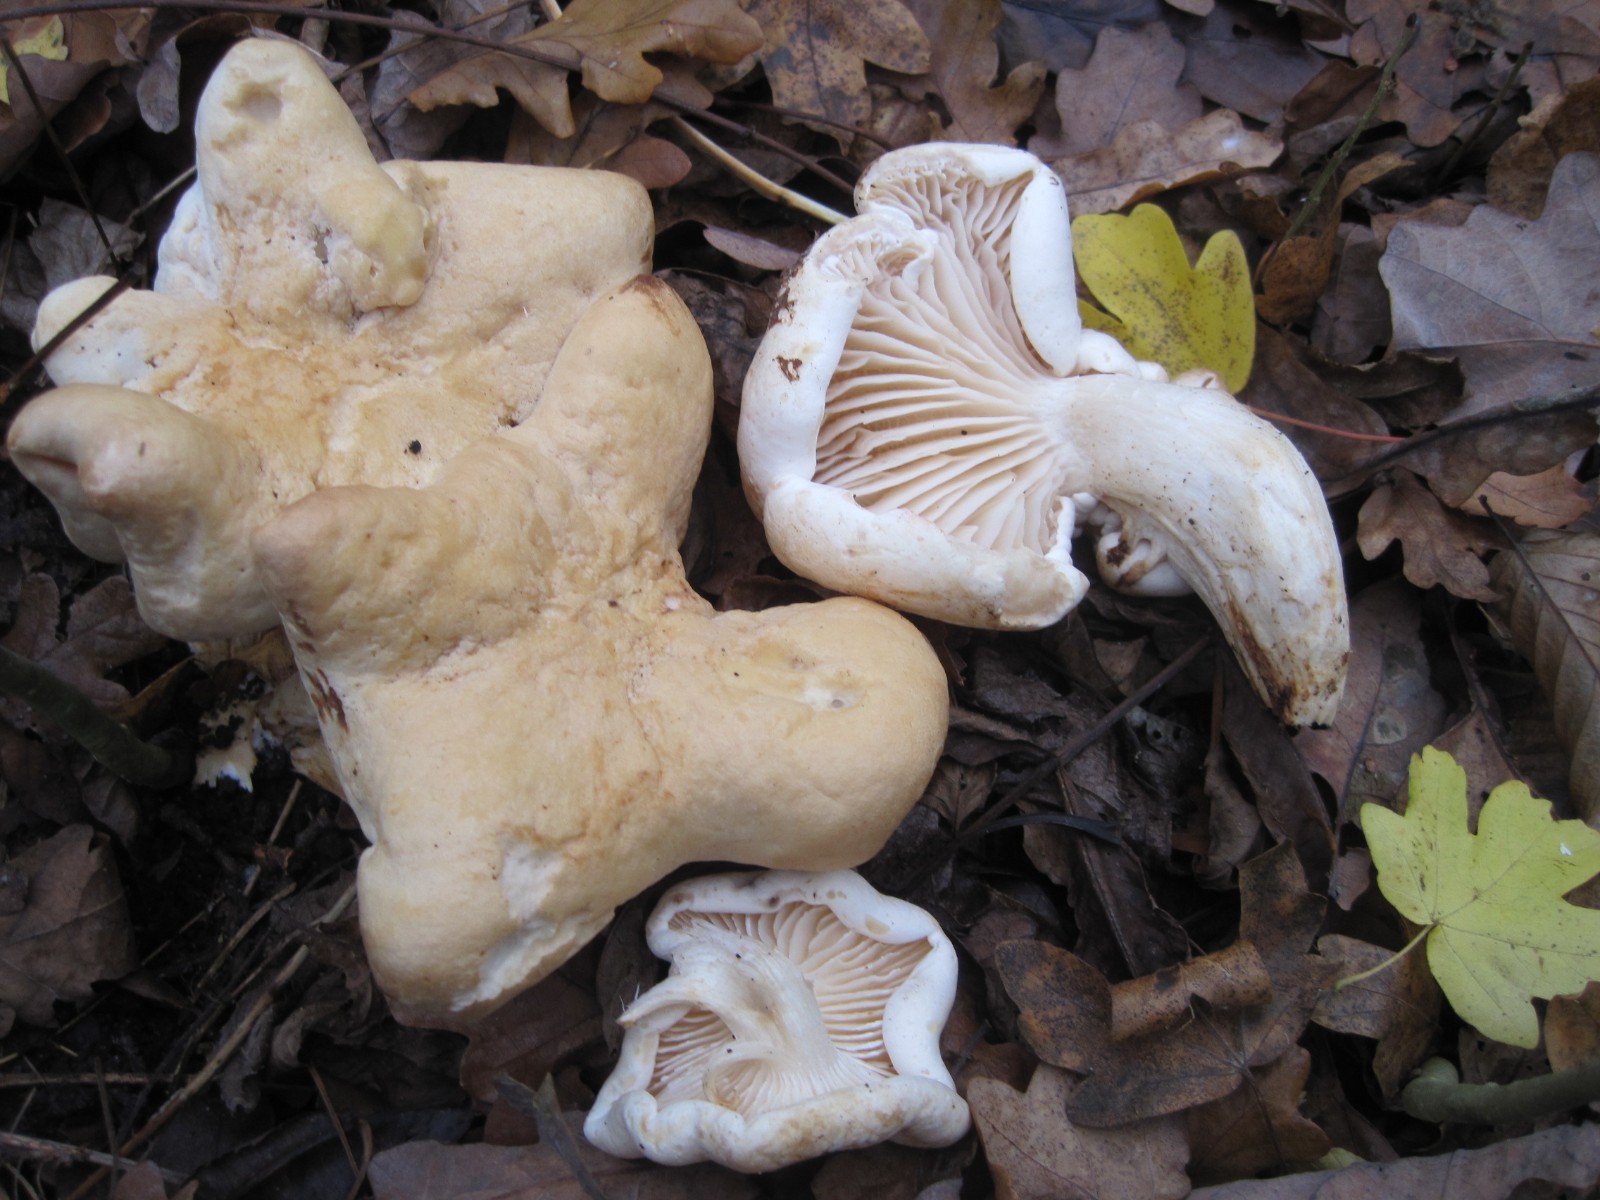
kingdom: Fungi
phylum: Basidiomycota
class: Agaricomycetes
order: Agaricales
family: Tricholomataceae
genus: Tricholoma
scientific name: Tricholoma album
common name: honning-ridderhat
